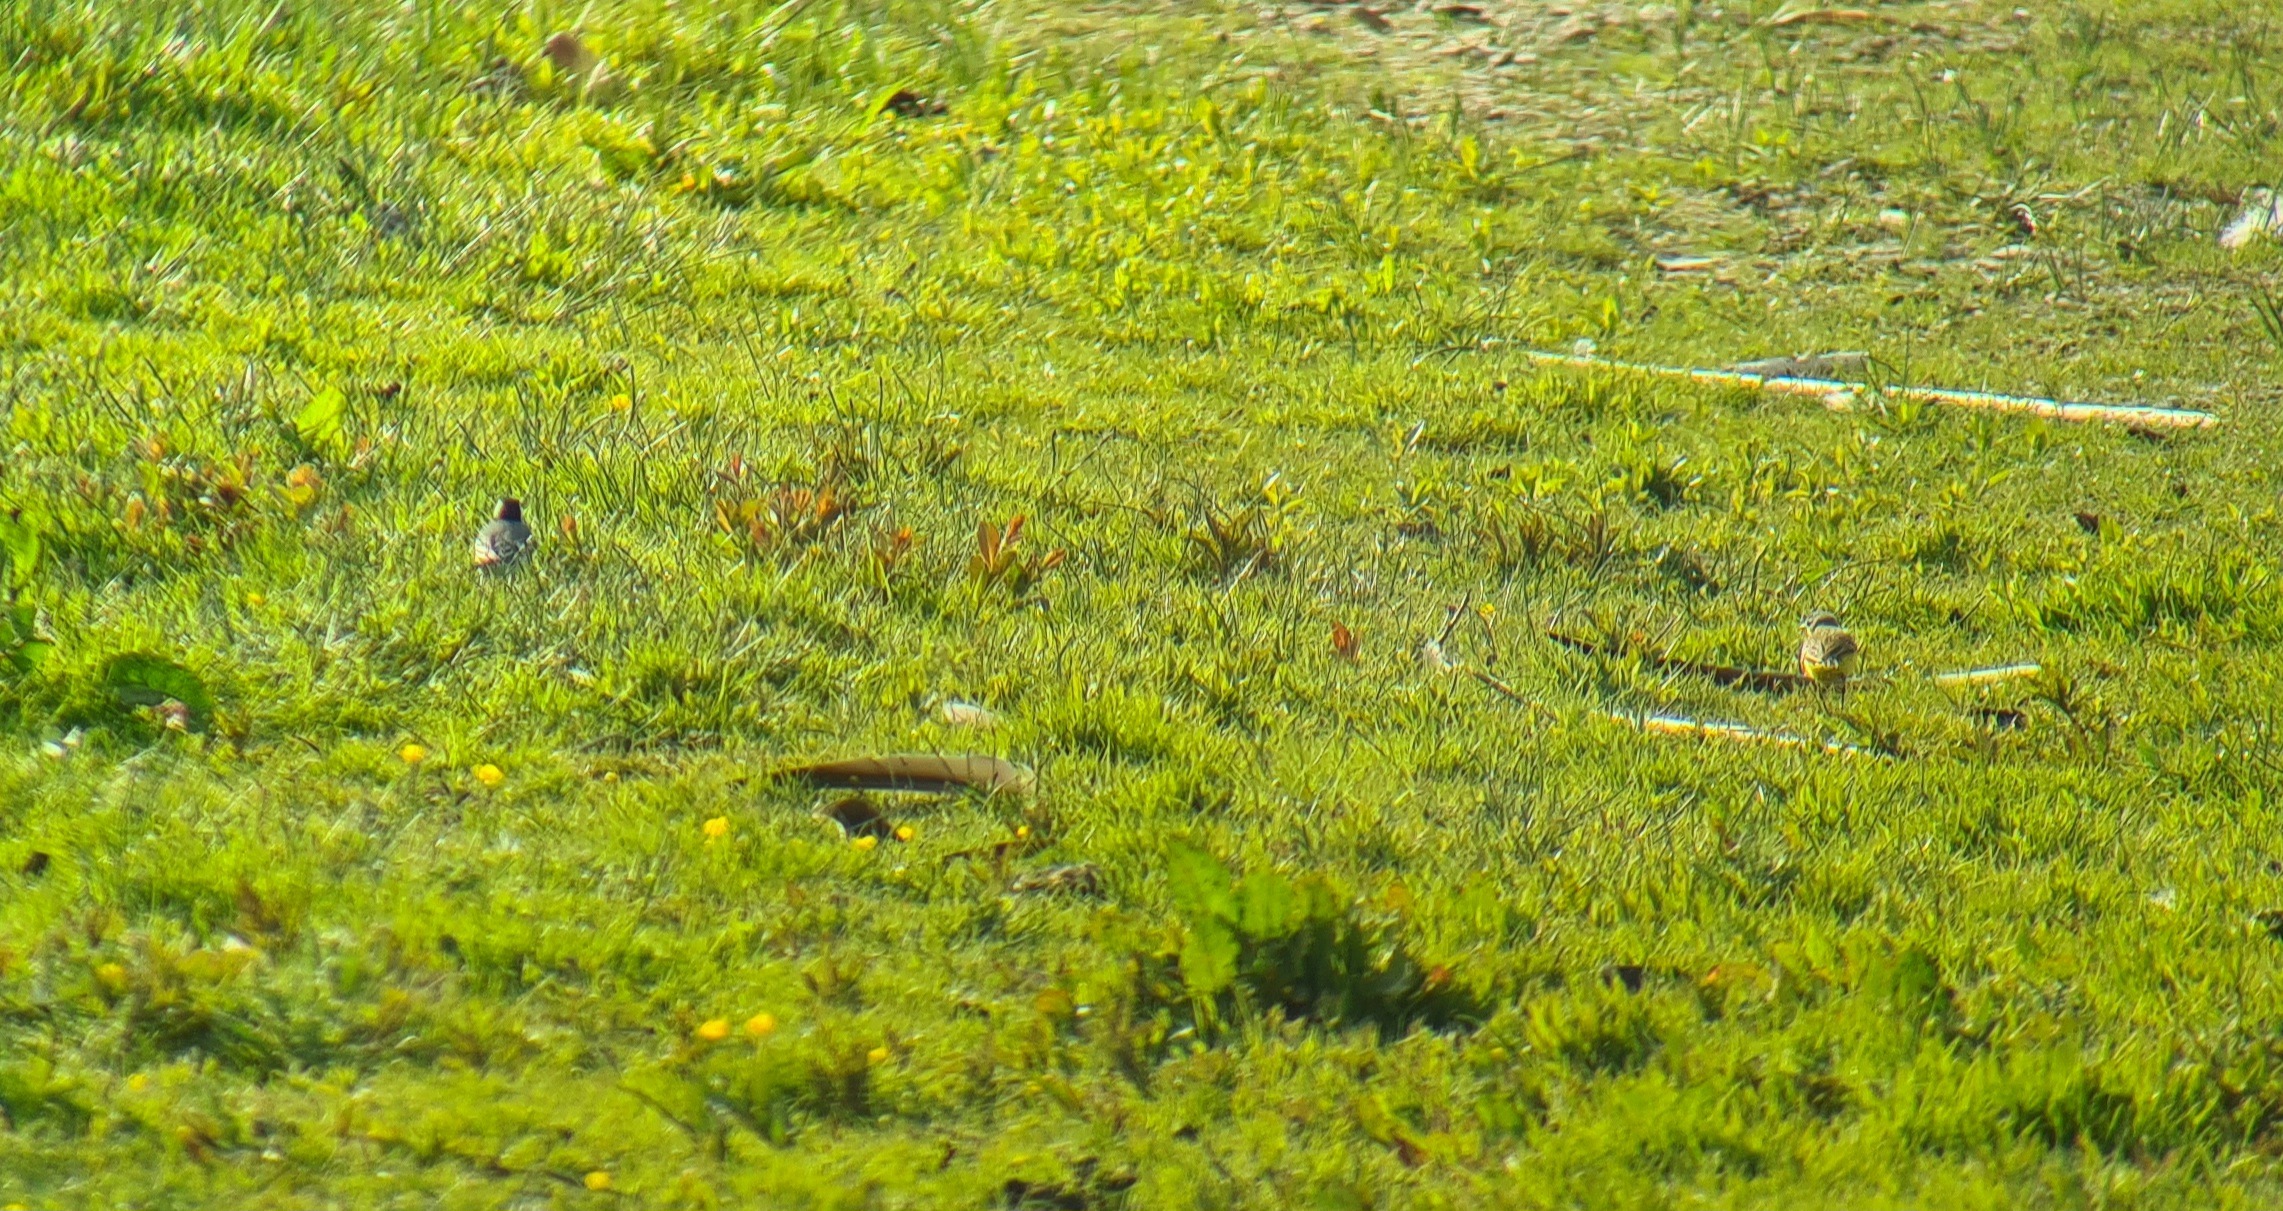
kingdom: Animalia
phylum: Chordata
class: Aves
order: Passeriformes
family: Motacillidae
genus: Motacilla
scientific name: Motacilla flava
